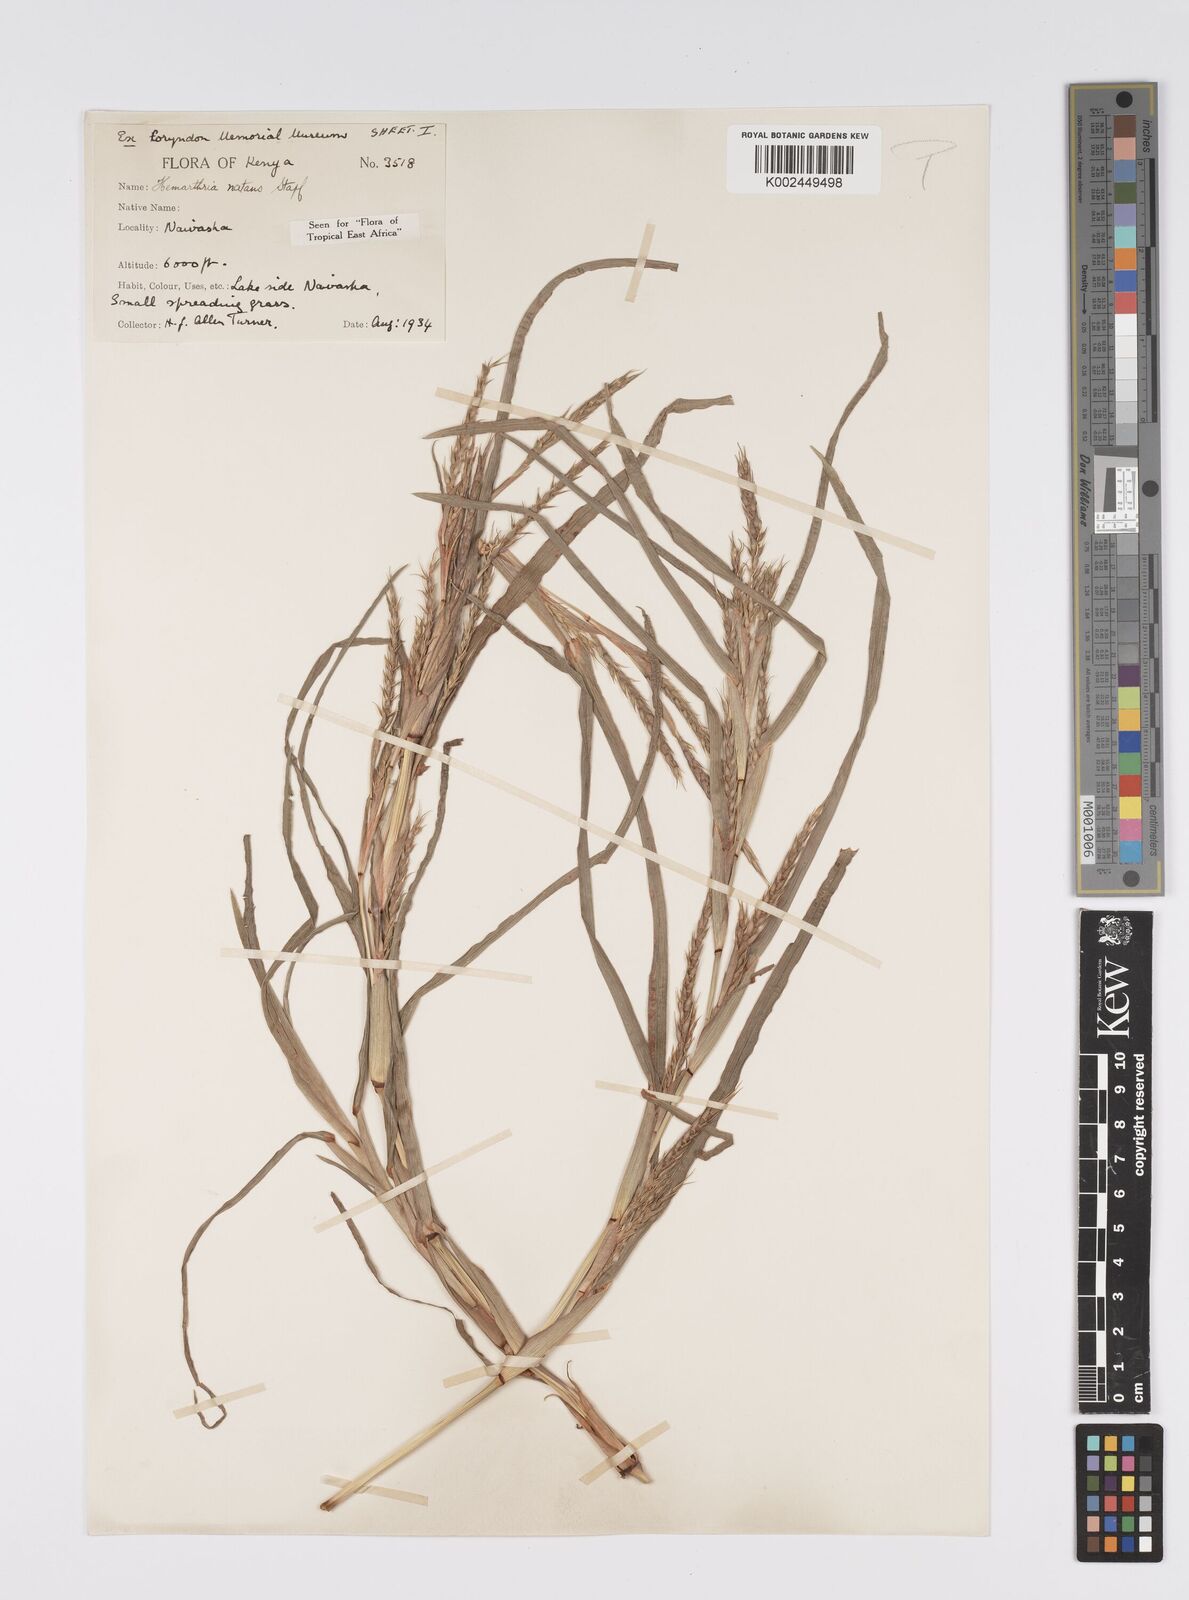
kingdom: Plantae
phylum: Tracheophyta
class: Liliopsida
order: Poales
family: Poaceae
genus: Hemarthria
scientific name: Hemarthria natans
